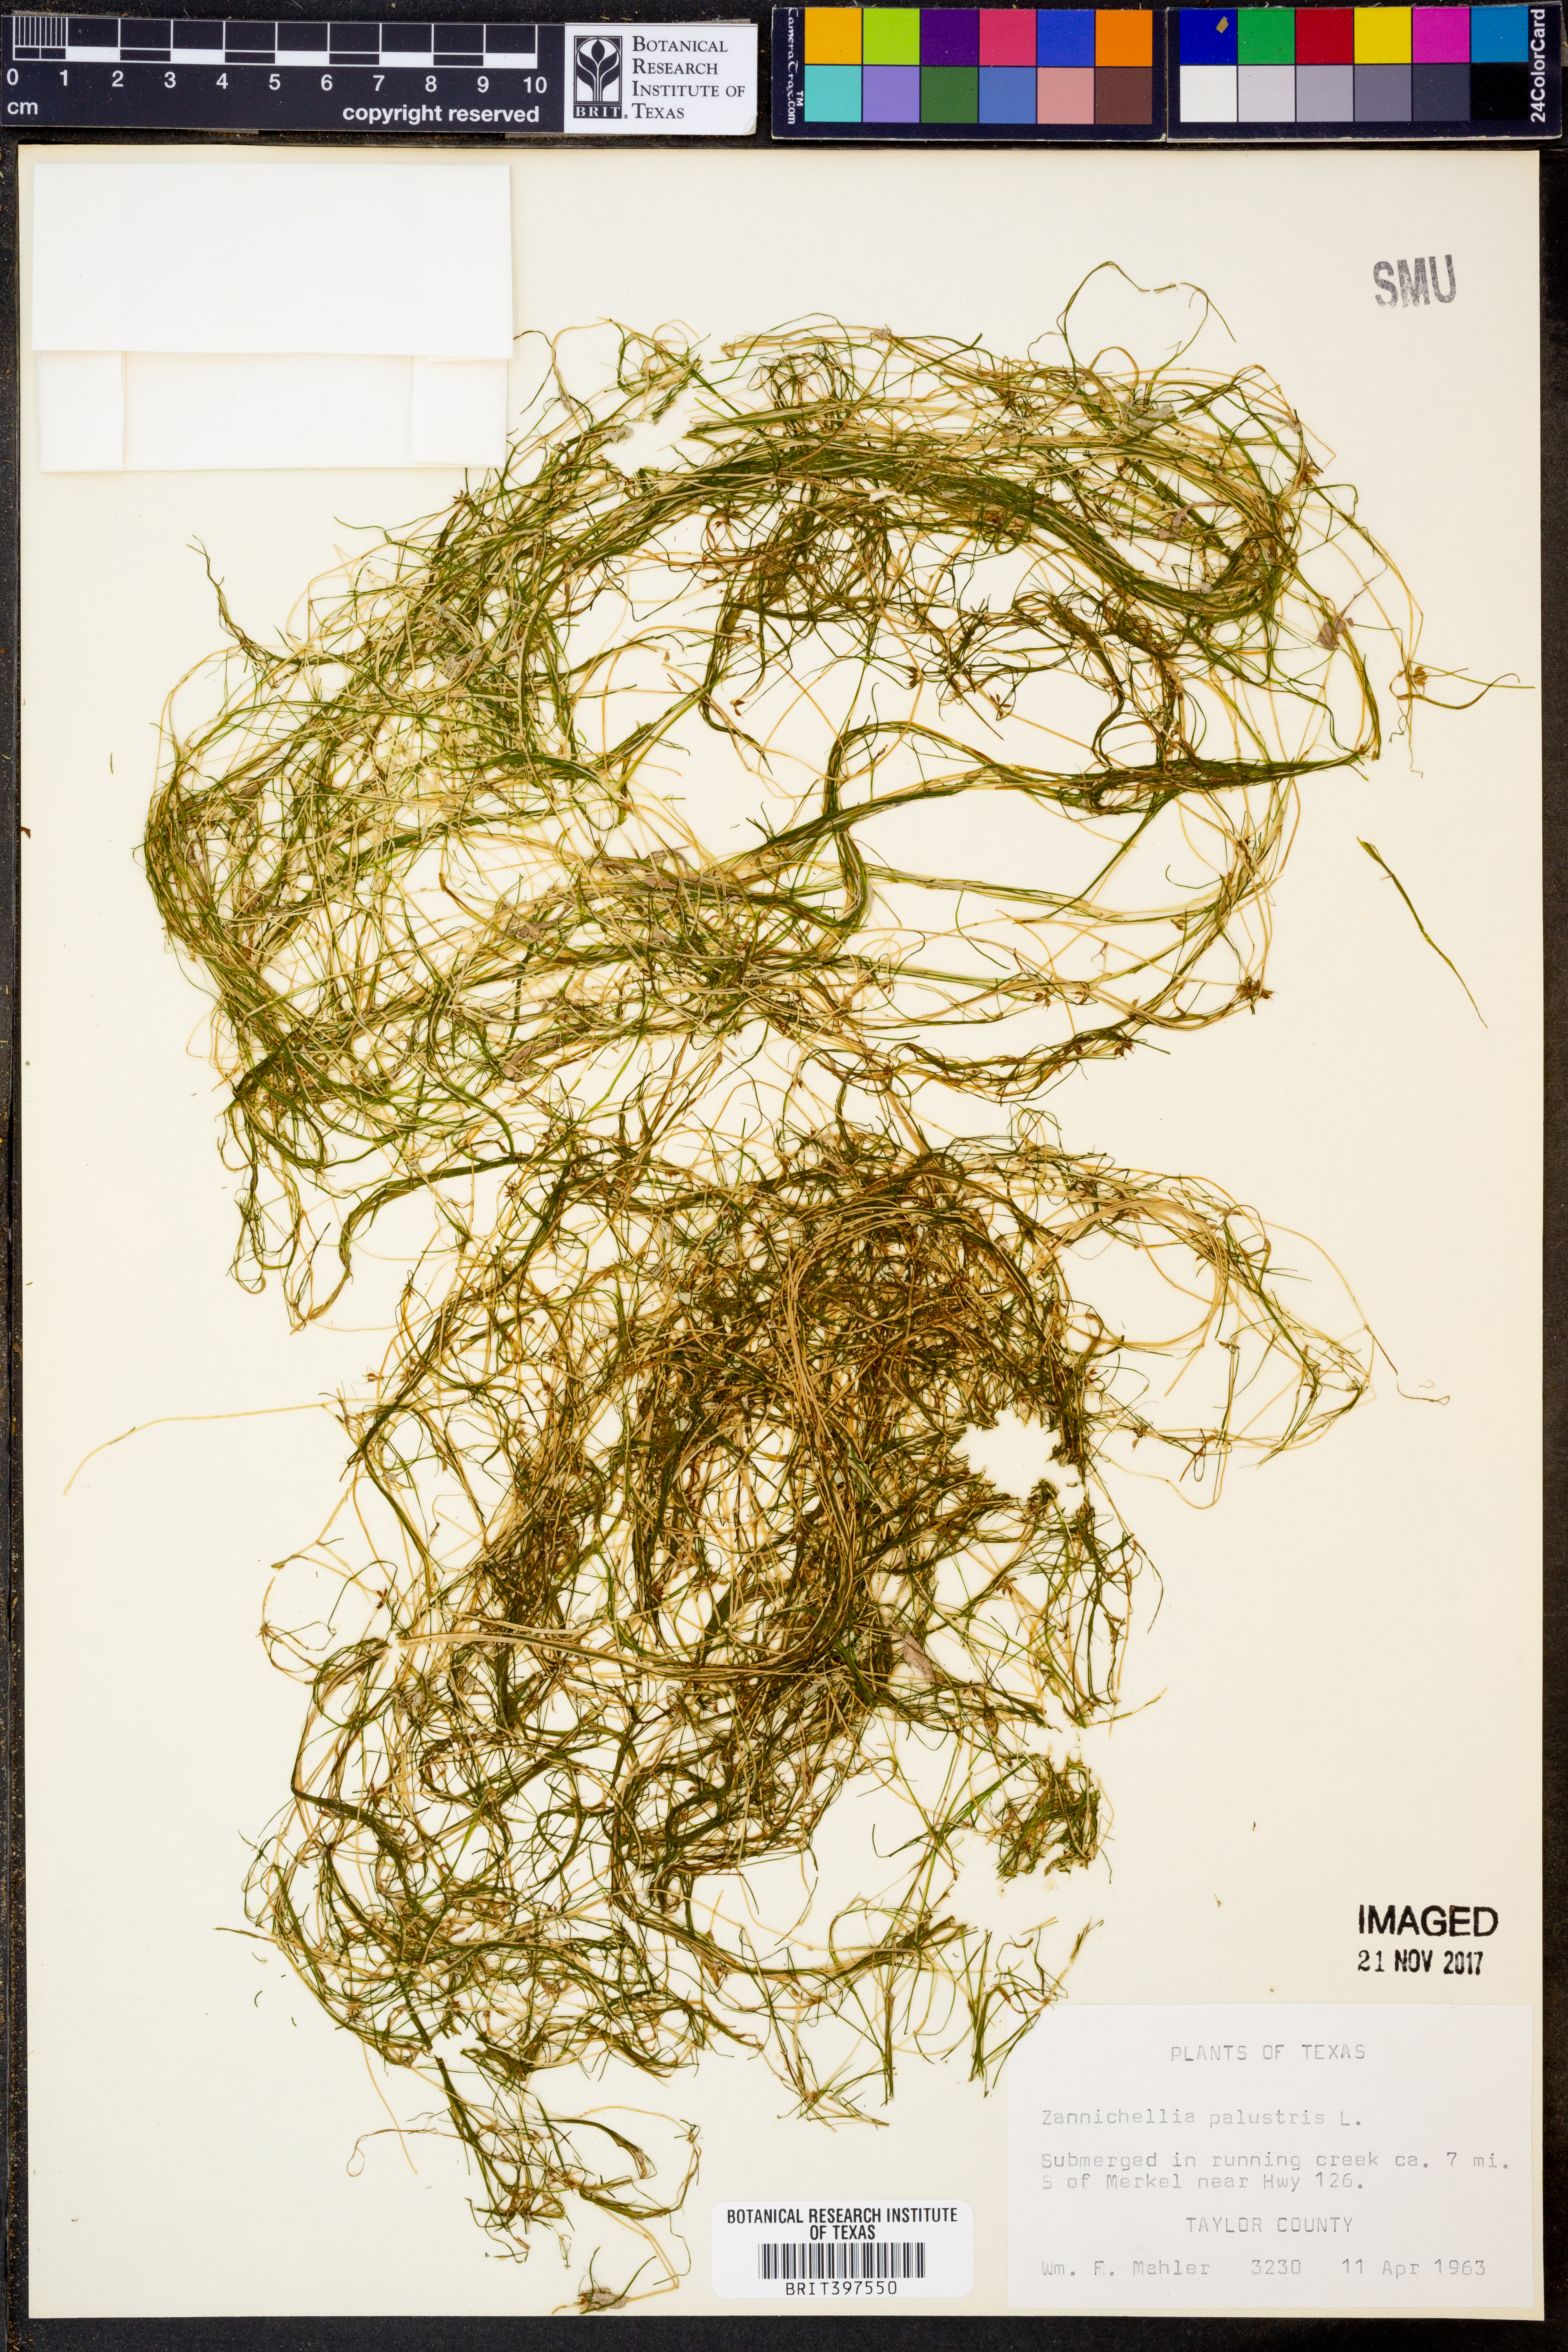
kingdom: Plantae
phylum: Tracheophyta
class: Liliopsida
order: Alismatales
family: Potamogetonaceae
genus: Zannichellia
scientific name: Zannichellia palustris
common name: Horned pondweed
